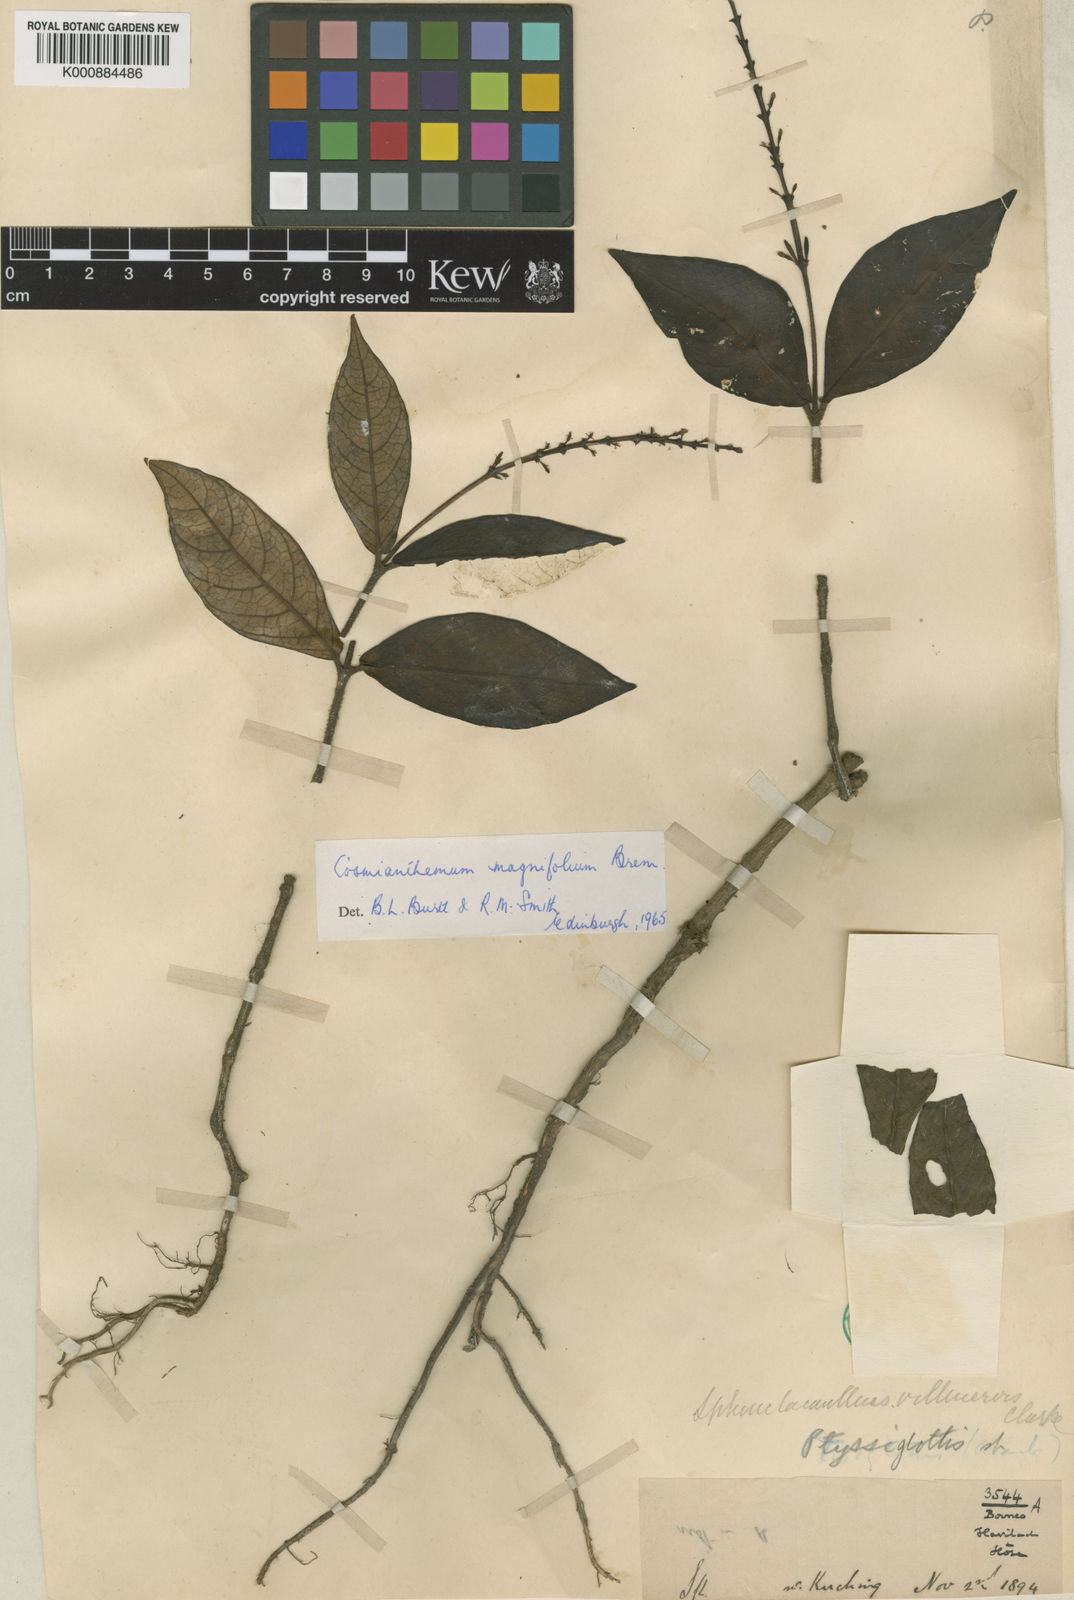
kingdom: Plantae
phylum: Tracheophyta
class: Magnoliopsida
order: Lamiales
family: Acanthaceae
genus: Cosmianthemum
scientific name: Cosmianthemum magnifolium
